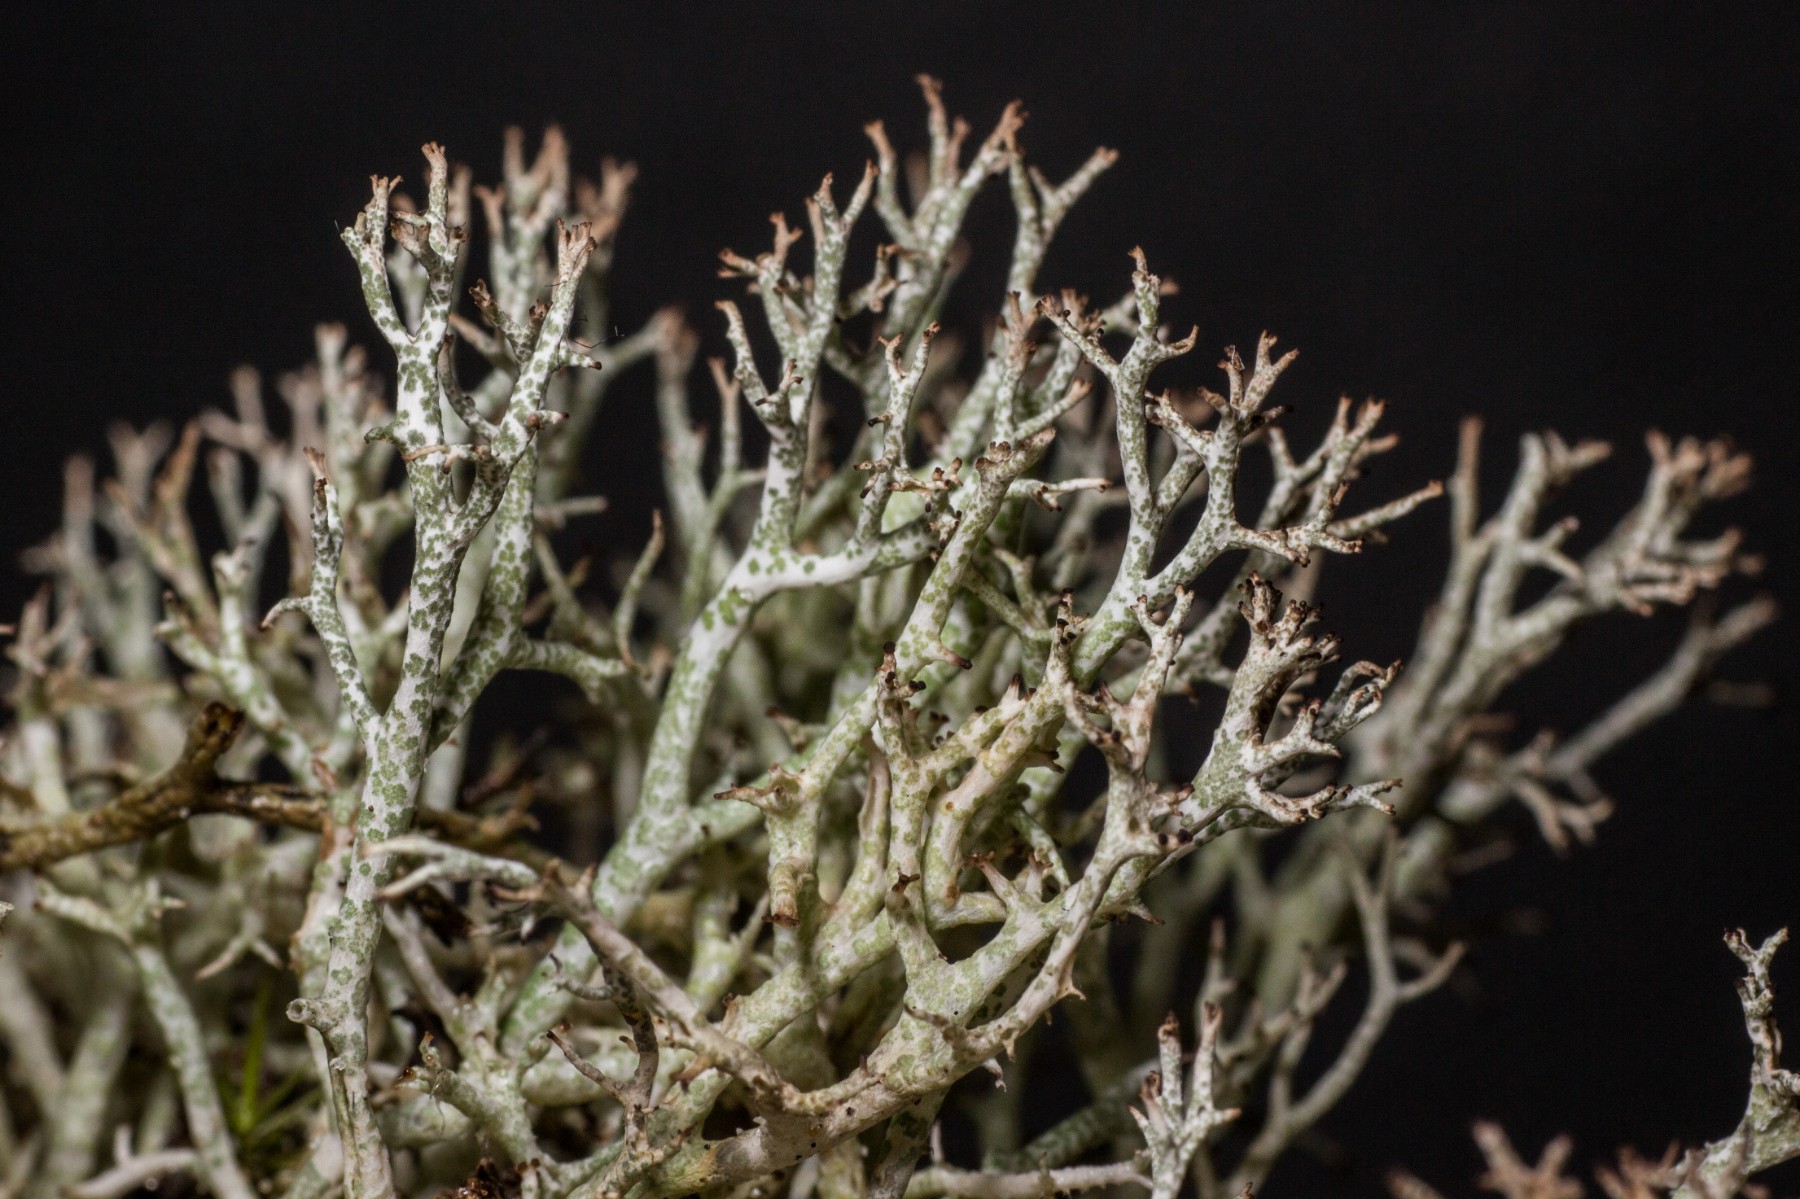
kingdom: Fungi
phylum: Ascomycota
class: Lecanoromycetes
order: Lecanorales
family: Cladoniaceae
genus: Cladonia
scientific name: Cladonia rangiformis
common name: spættet bægerlav
